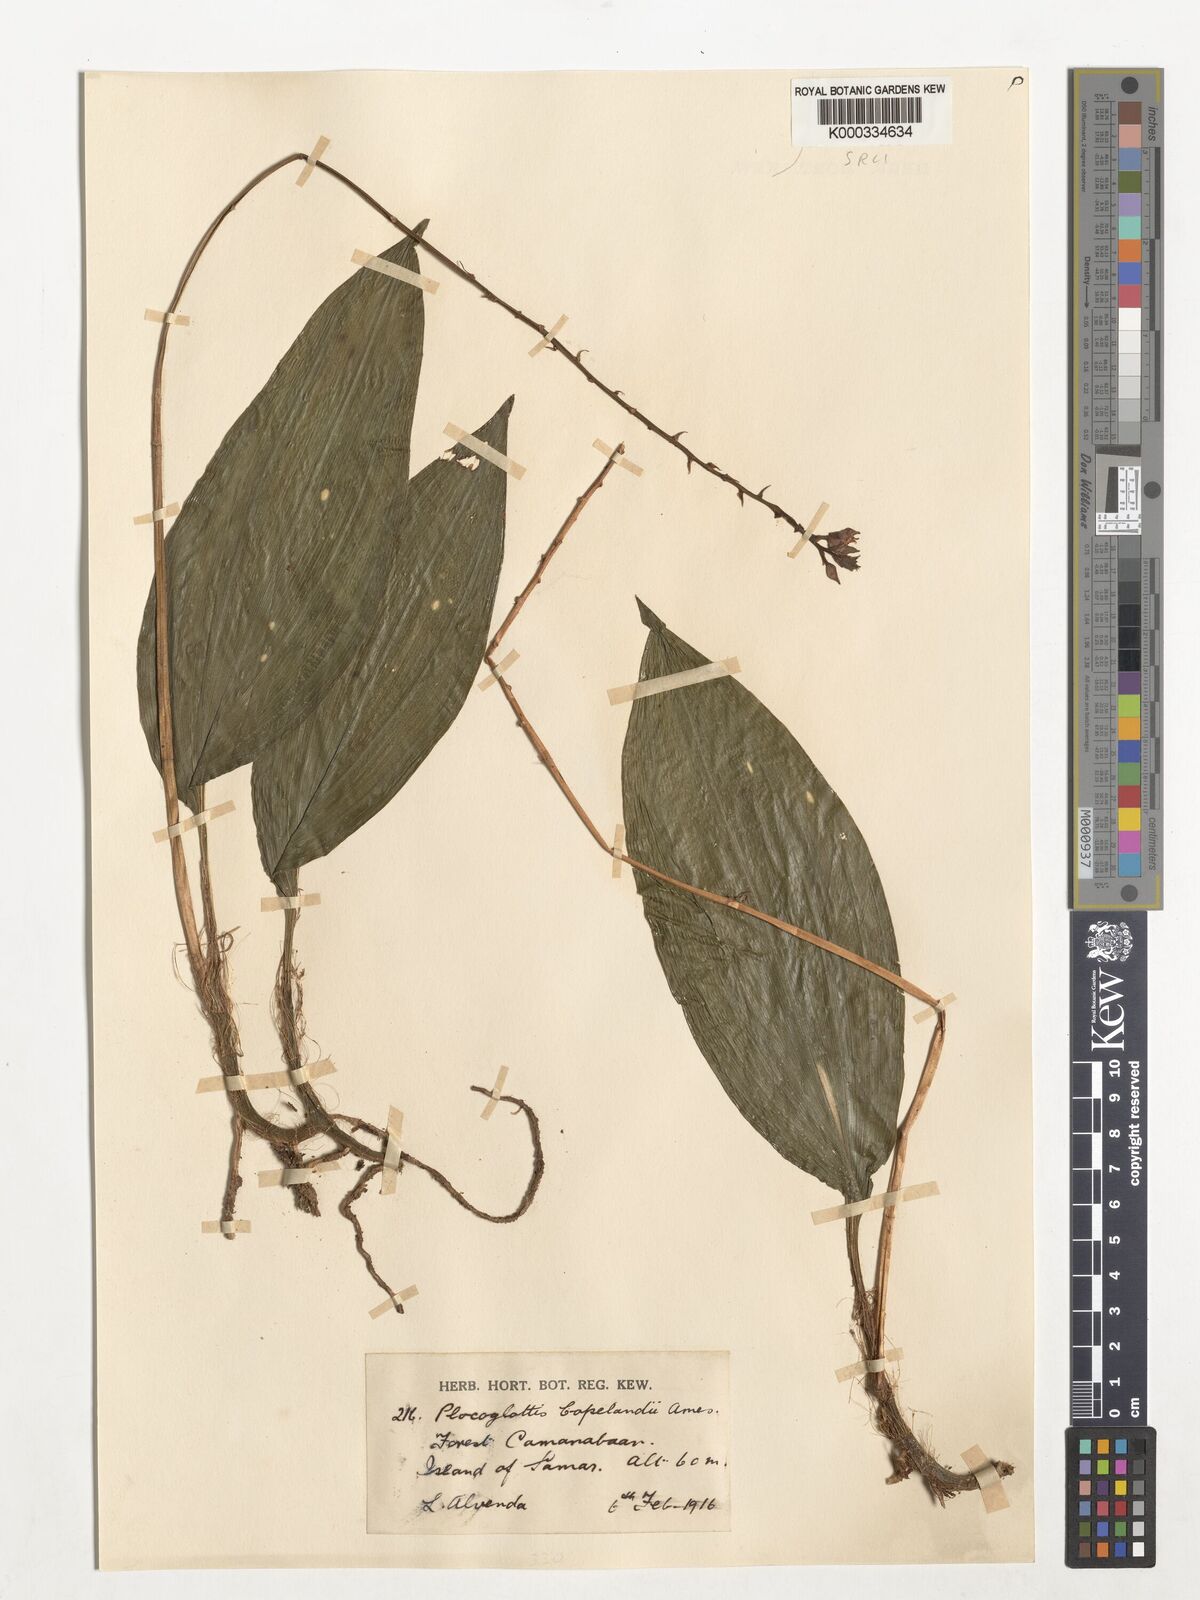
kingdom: Plantae
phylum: Tracheophyta
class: Liliopsida
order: Asparagales
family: Orchidaceae
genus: Plocoglottis
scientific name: Plocoglottis copelandii
